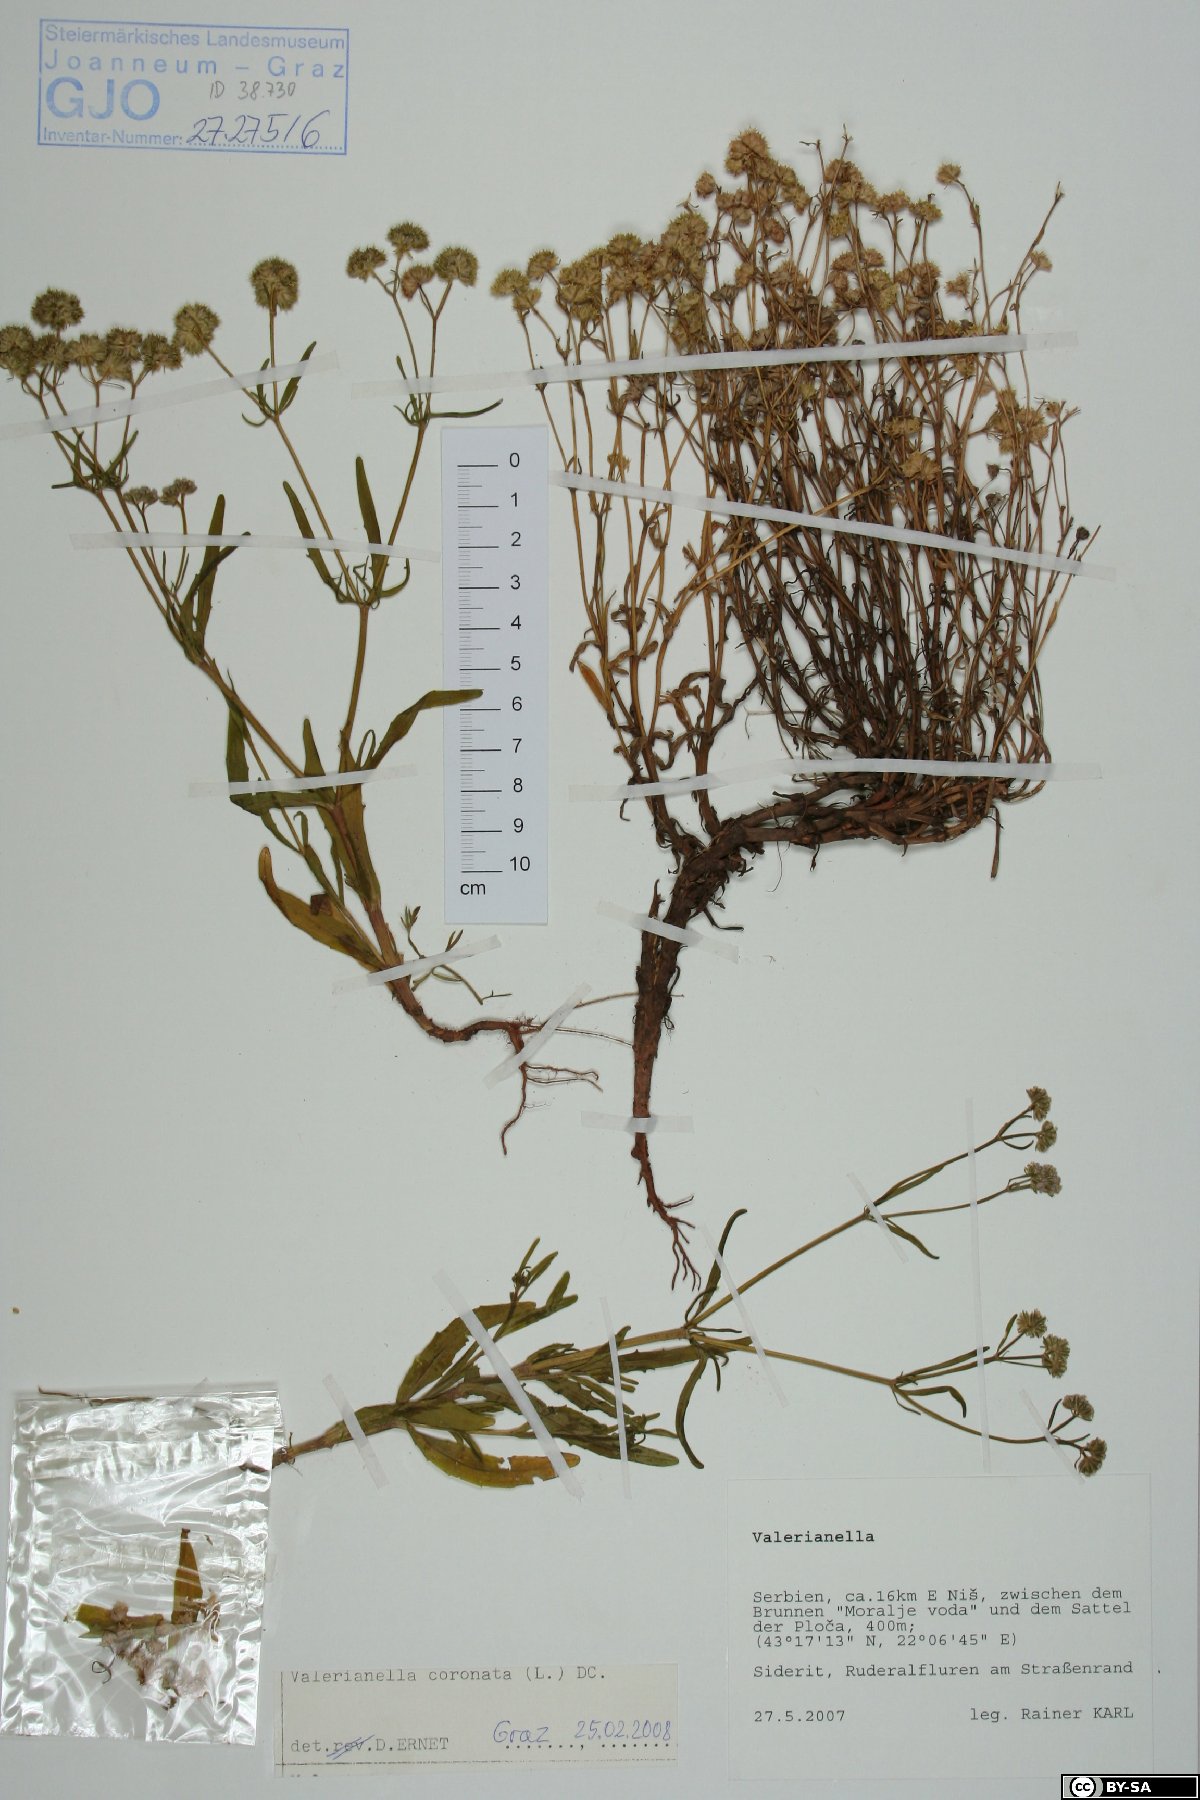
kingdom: Plantae
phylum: Tracheophyta
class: Magnoliopsida
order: Dipsacales
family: Caprifoliaceae
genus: Valerianella
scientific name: Valerianella coronata
